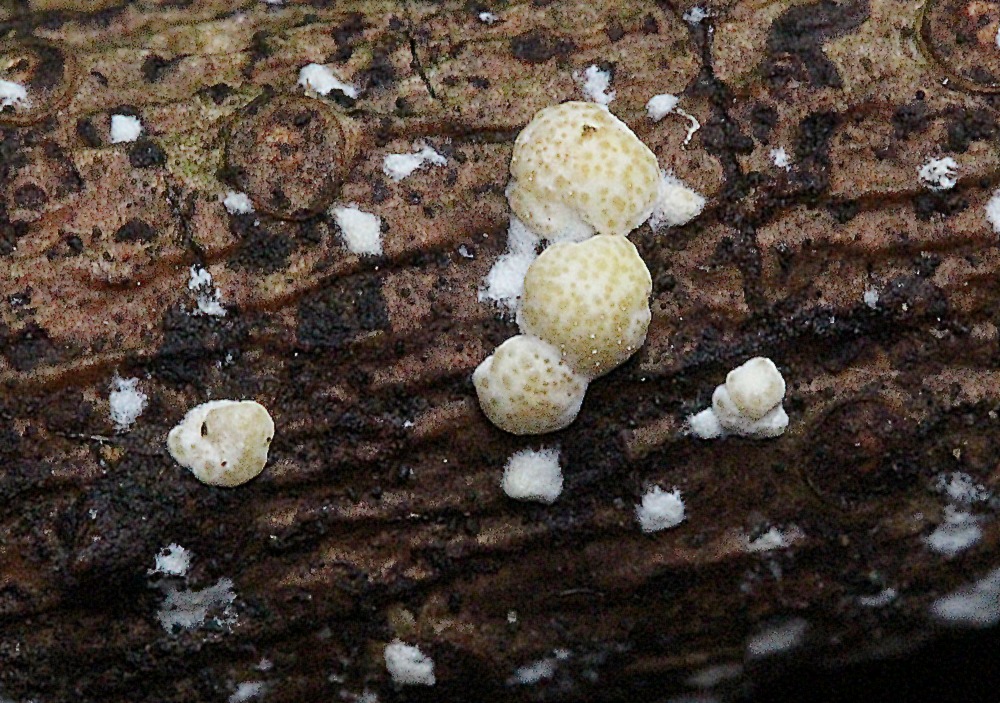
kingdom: Fungi
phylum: Ascomycota
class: Sordariomycetes
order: Hypocreales
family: Hypocreaceae
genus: Trichoderma
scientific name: Trichoderma
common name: kødkerne
